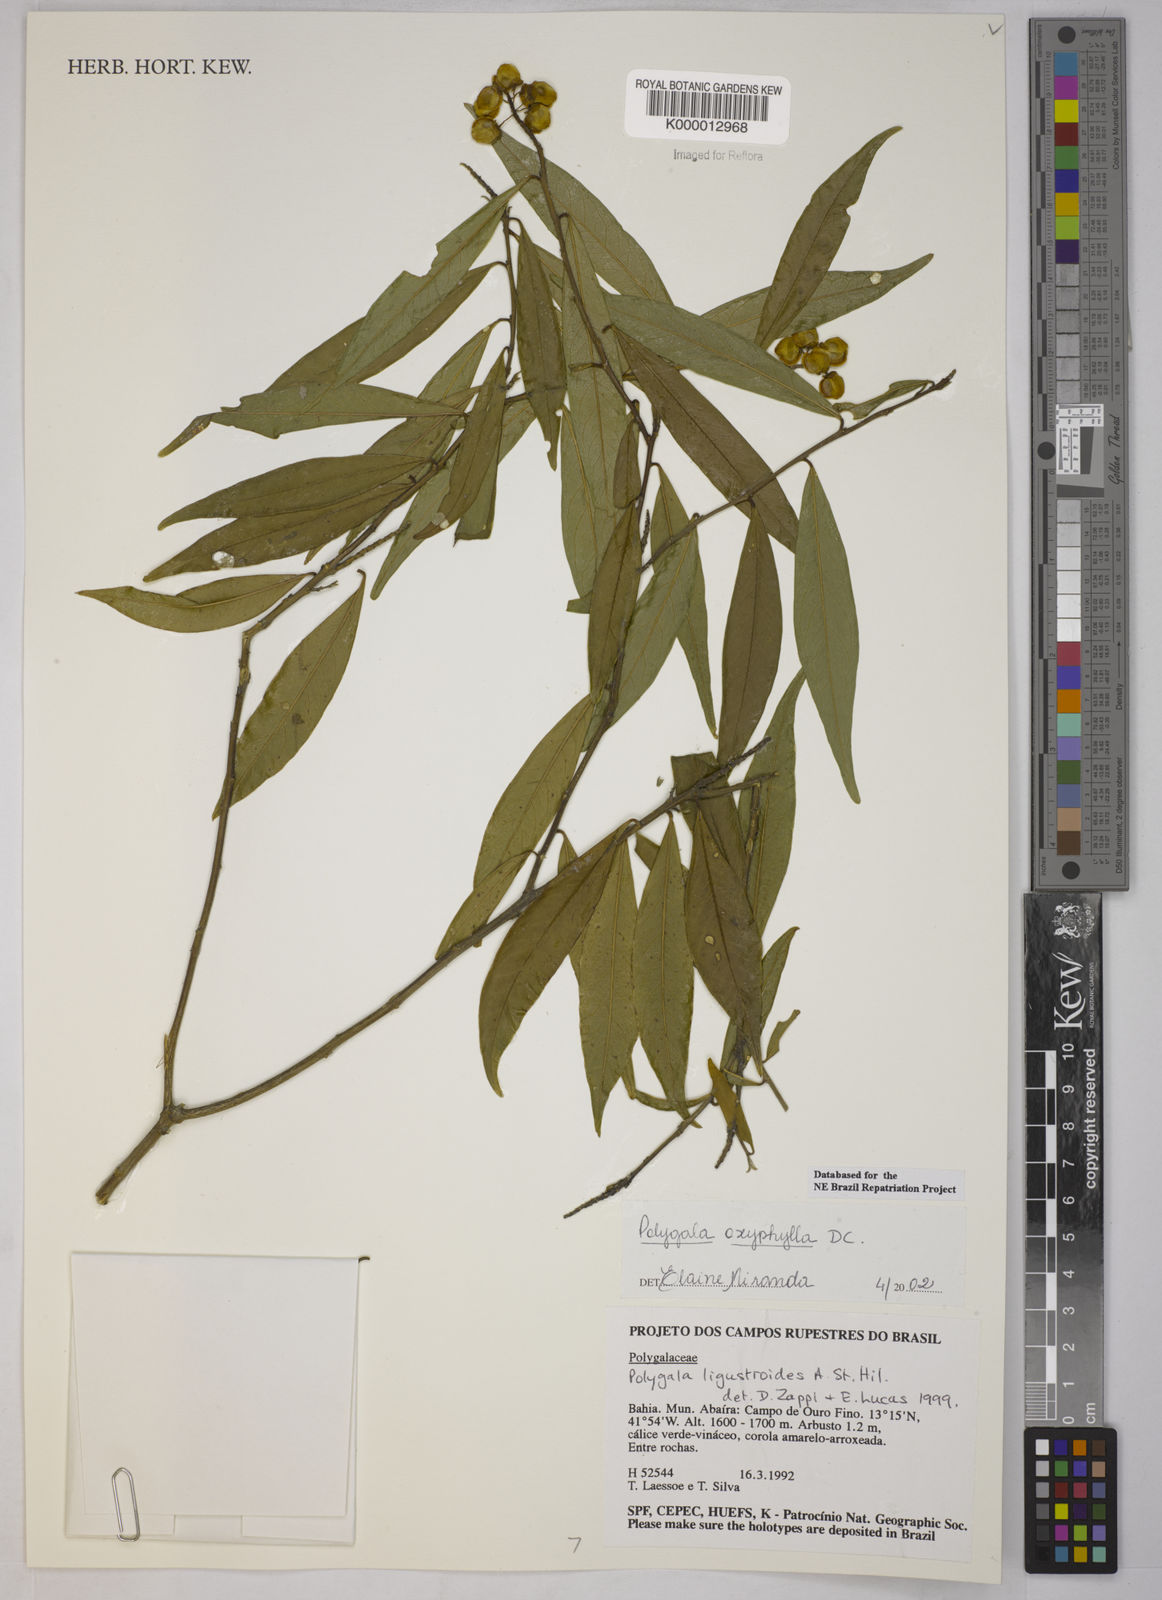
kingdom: Plantae
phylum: Tracheophyta
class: Magnoliopsida
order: Fabales
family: Polygalaceae
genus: Caamembeca
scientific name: Caamembeca oxyphylla
